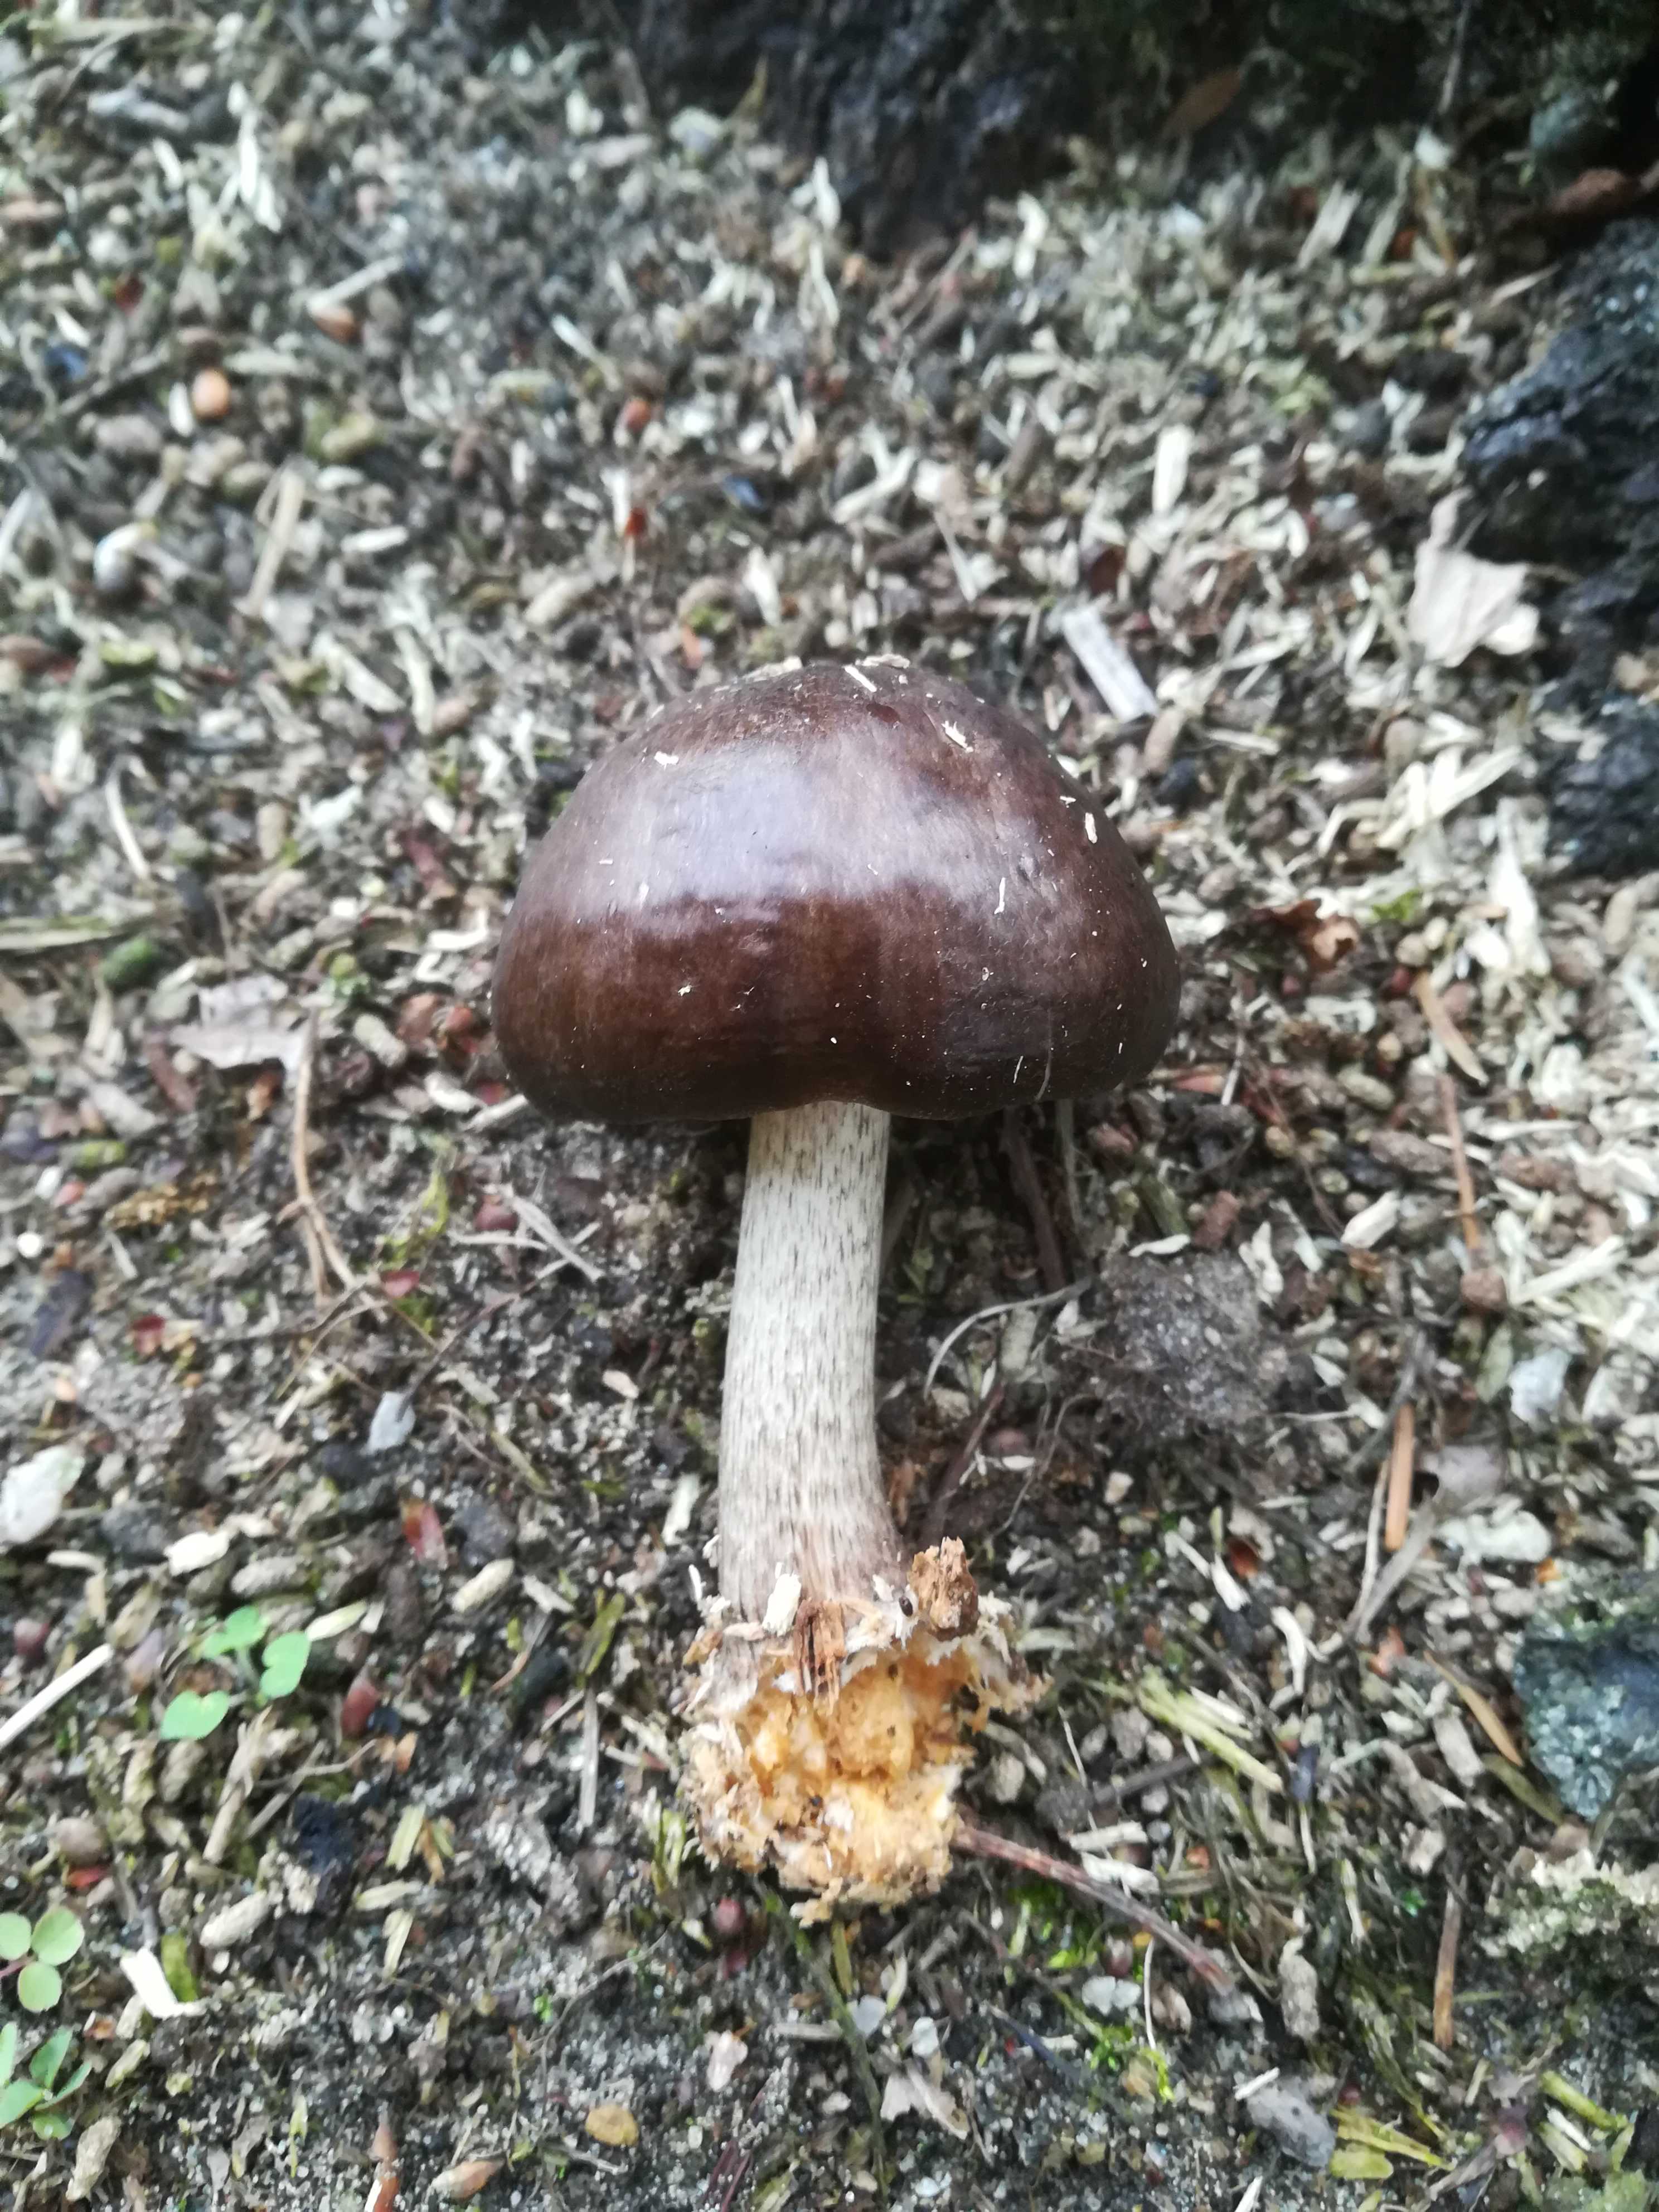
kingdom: Fungi
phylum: Basidiomycota
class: Agaricomycetes
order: Agaricales
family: Pluteaceae
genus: Pluteus
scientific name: Pluteus cervinus
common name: sodfarvet skærmhat
